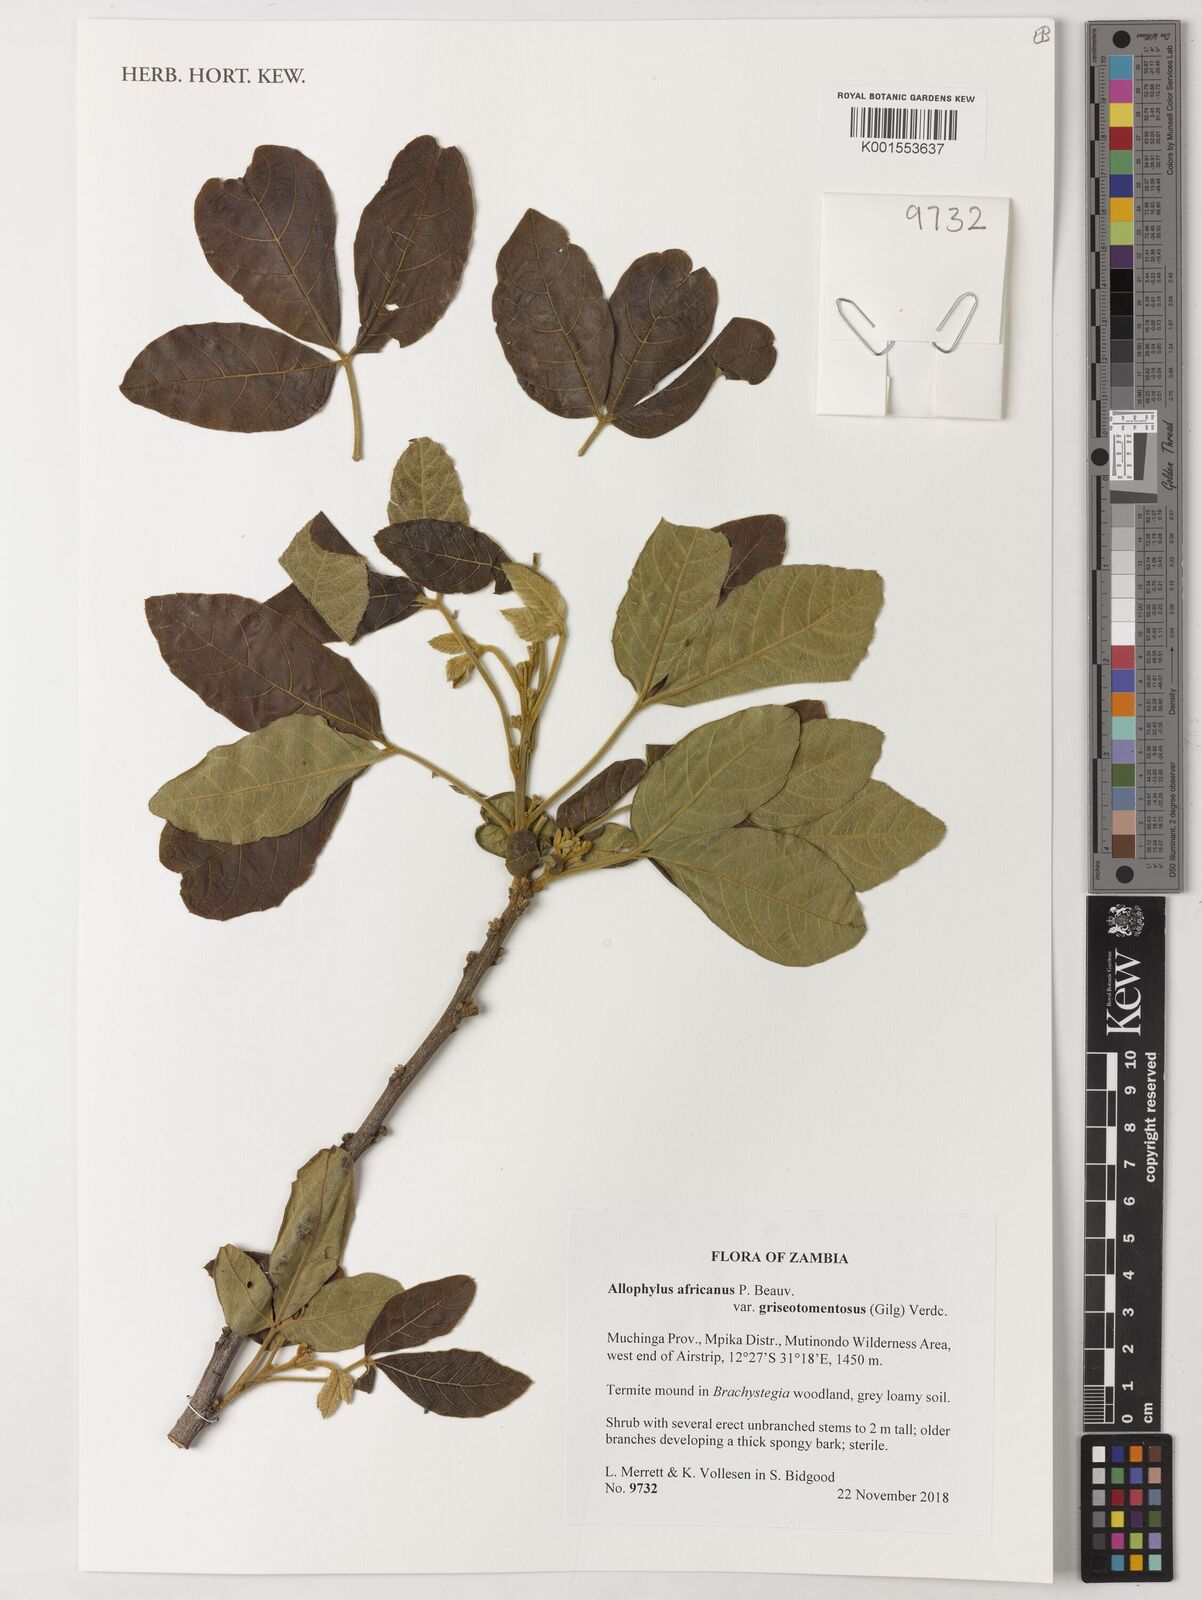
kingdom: Plantae
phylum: Tracheophyta
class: Magnoliopsida
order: Sapindales
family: Sapindaceae
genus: Allophylus
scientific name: Allophylus africanus
